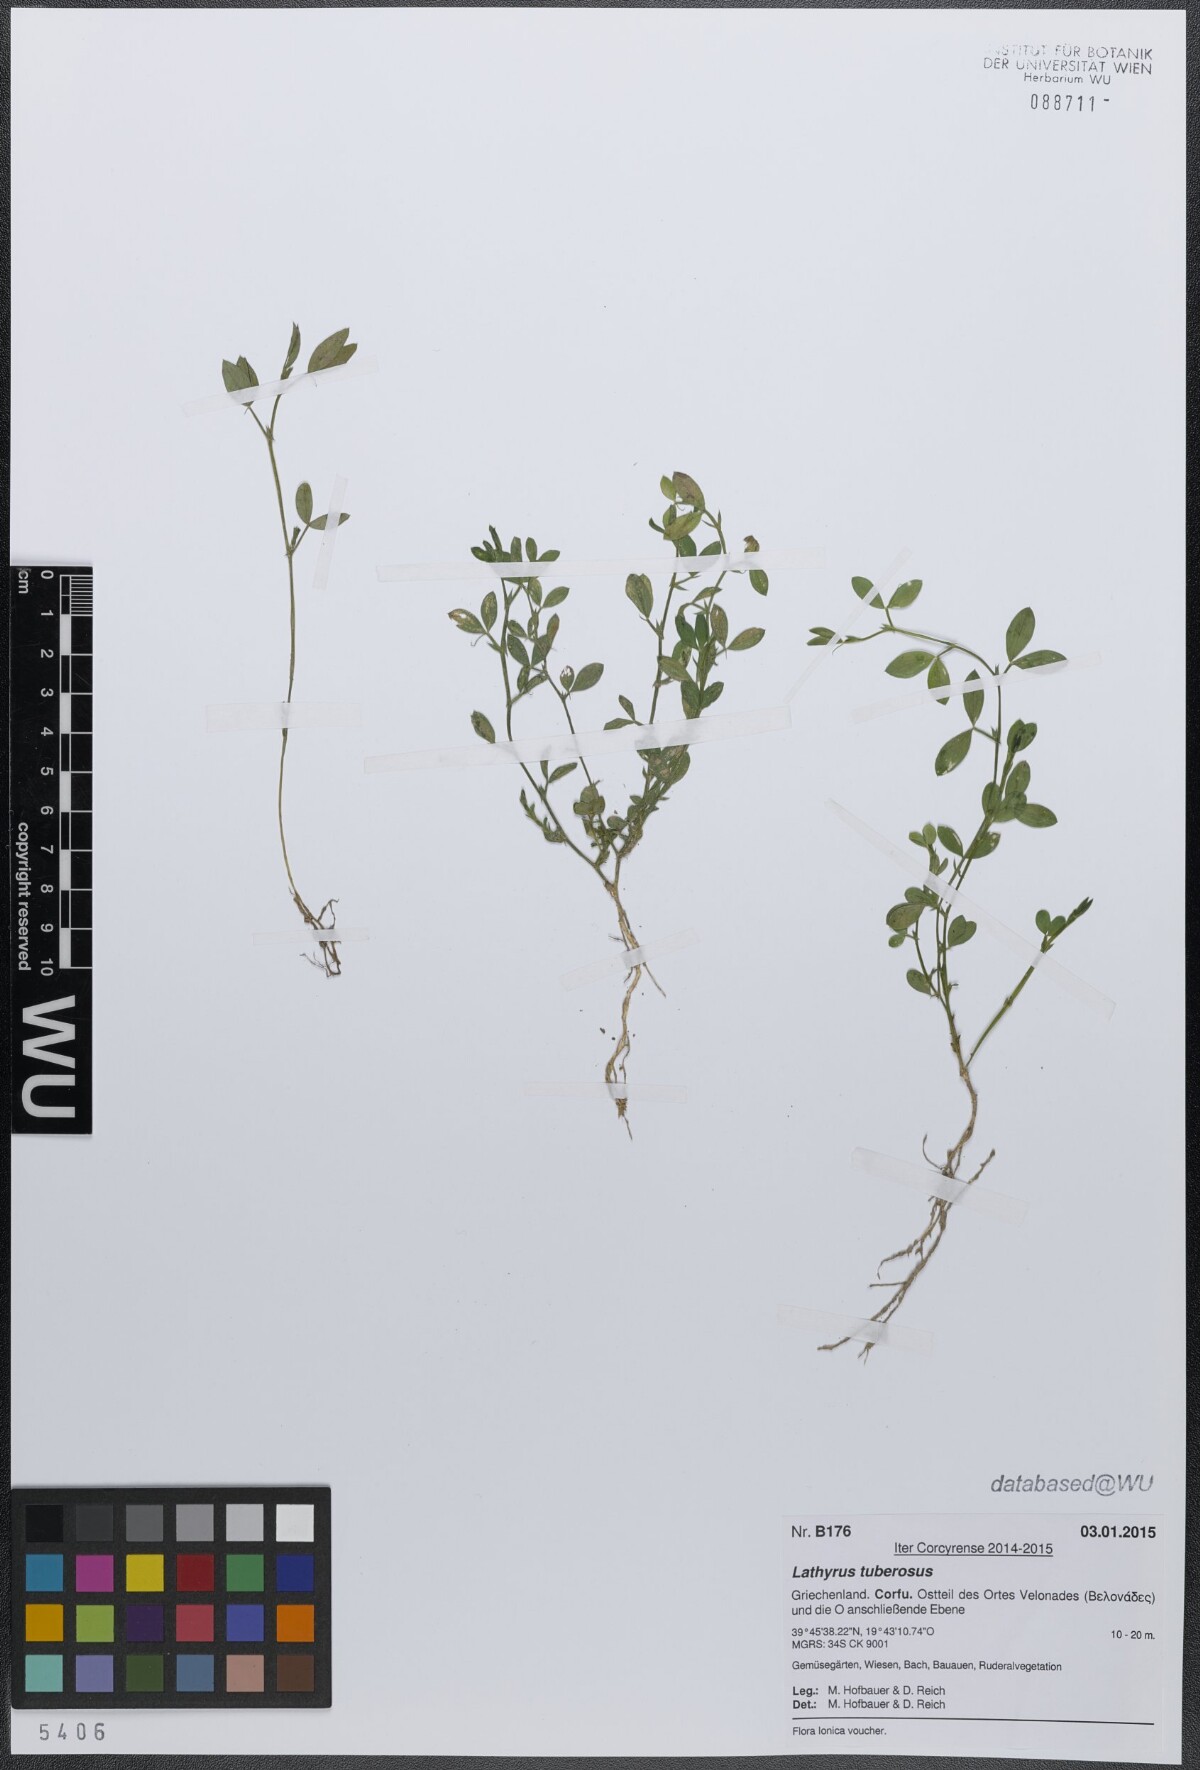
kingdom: Plantae
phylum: Tracheophyta
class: Magnoliopsida
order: Fabales
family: Fabaceae
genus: Lathyrus
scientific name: Lathyrus tuberosus
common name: Tuberous pea
